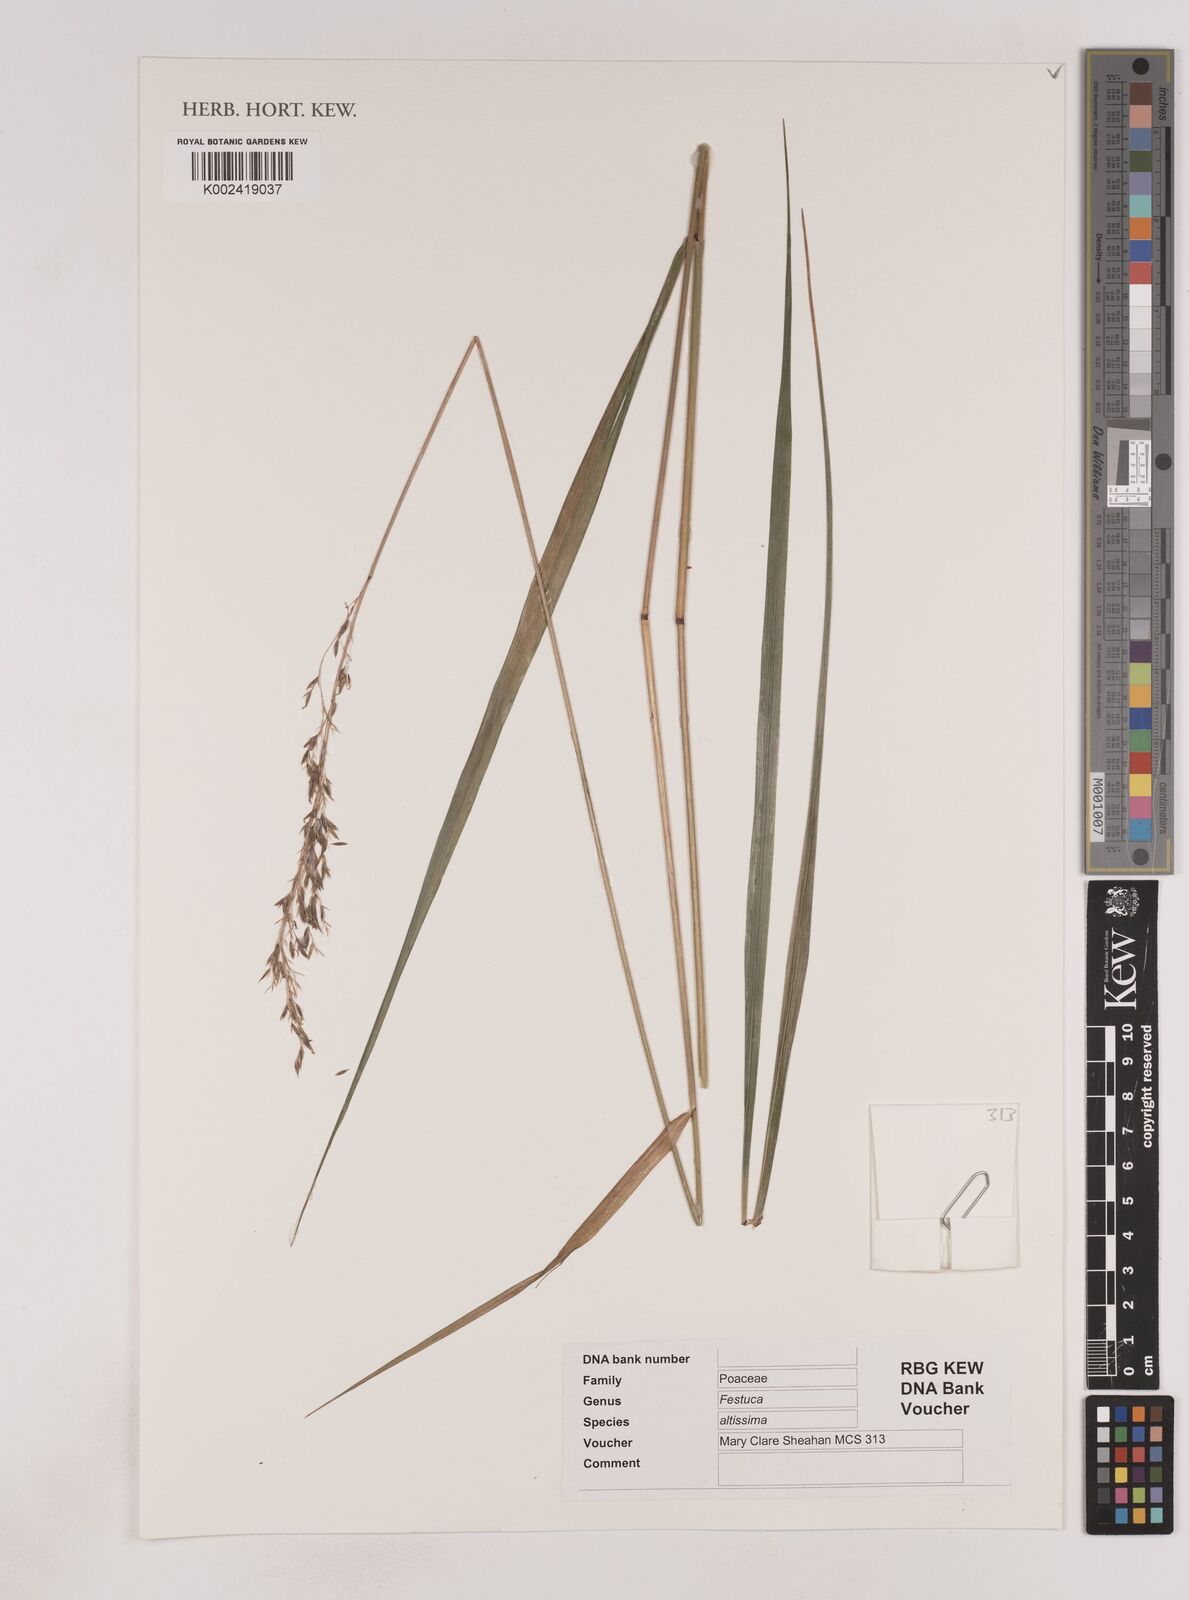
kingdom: Plantae
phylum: Tracheophyta
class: Liliopsida
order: Poales
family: Poaceae
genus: Festuca
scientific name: Festuca drymeja
